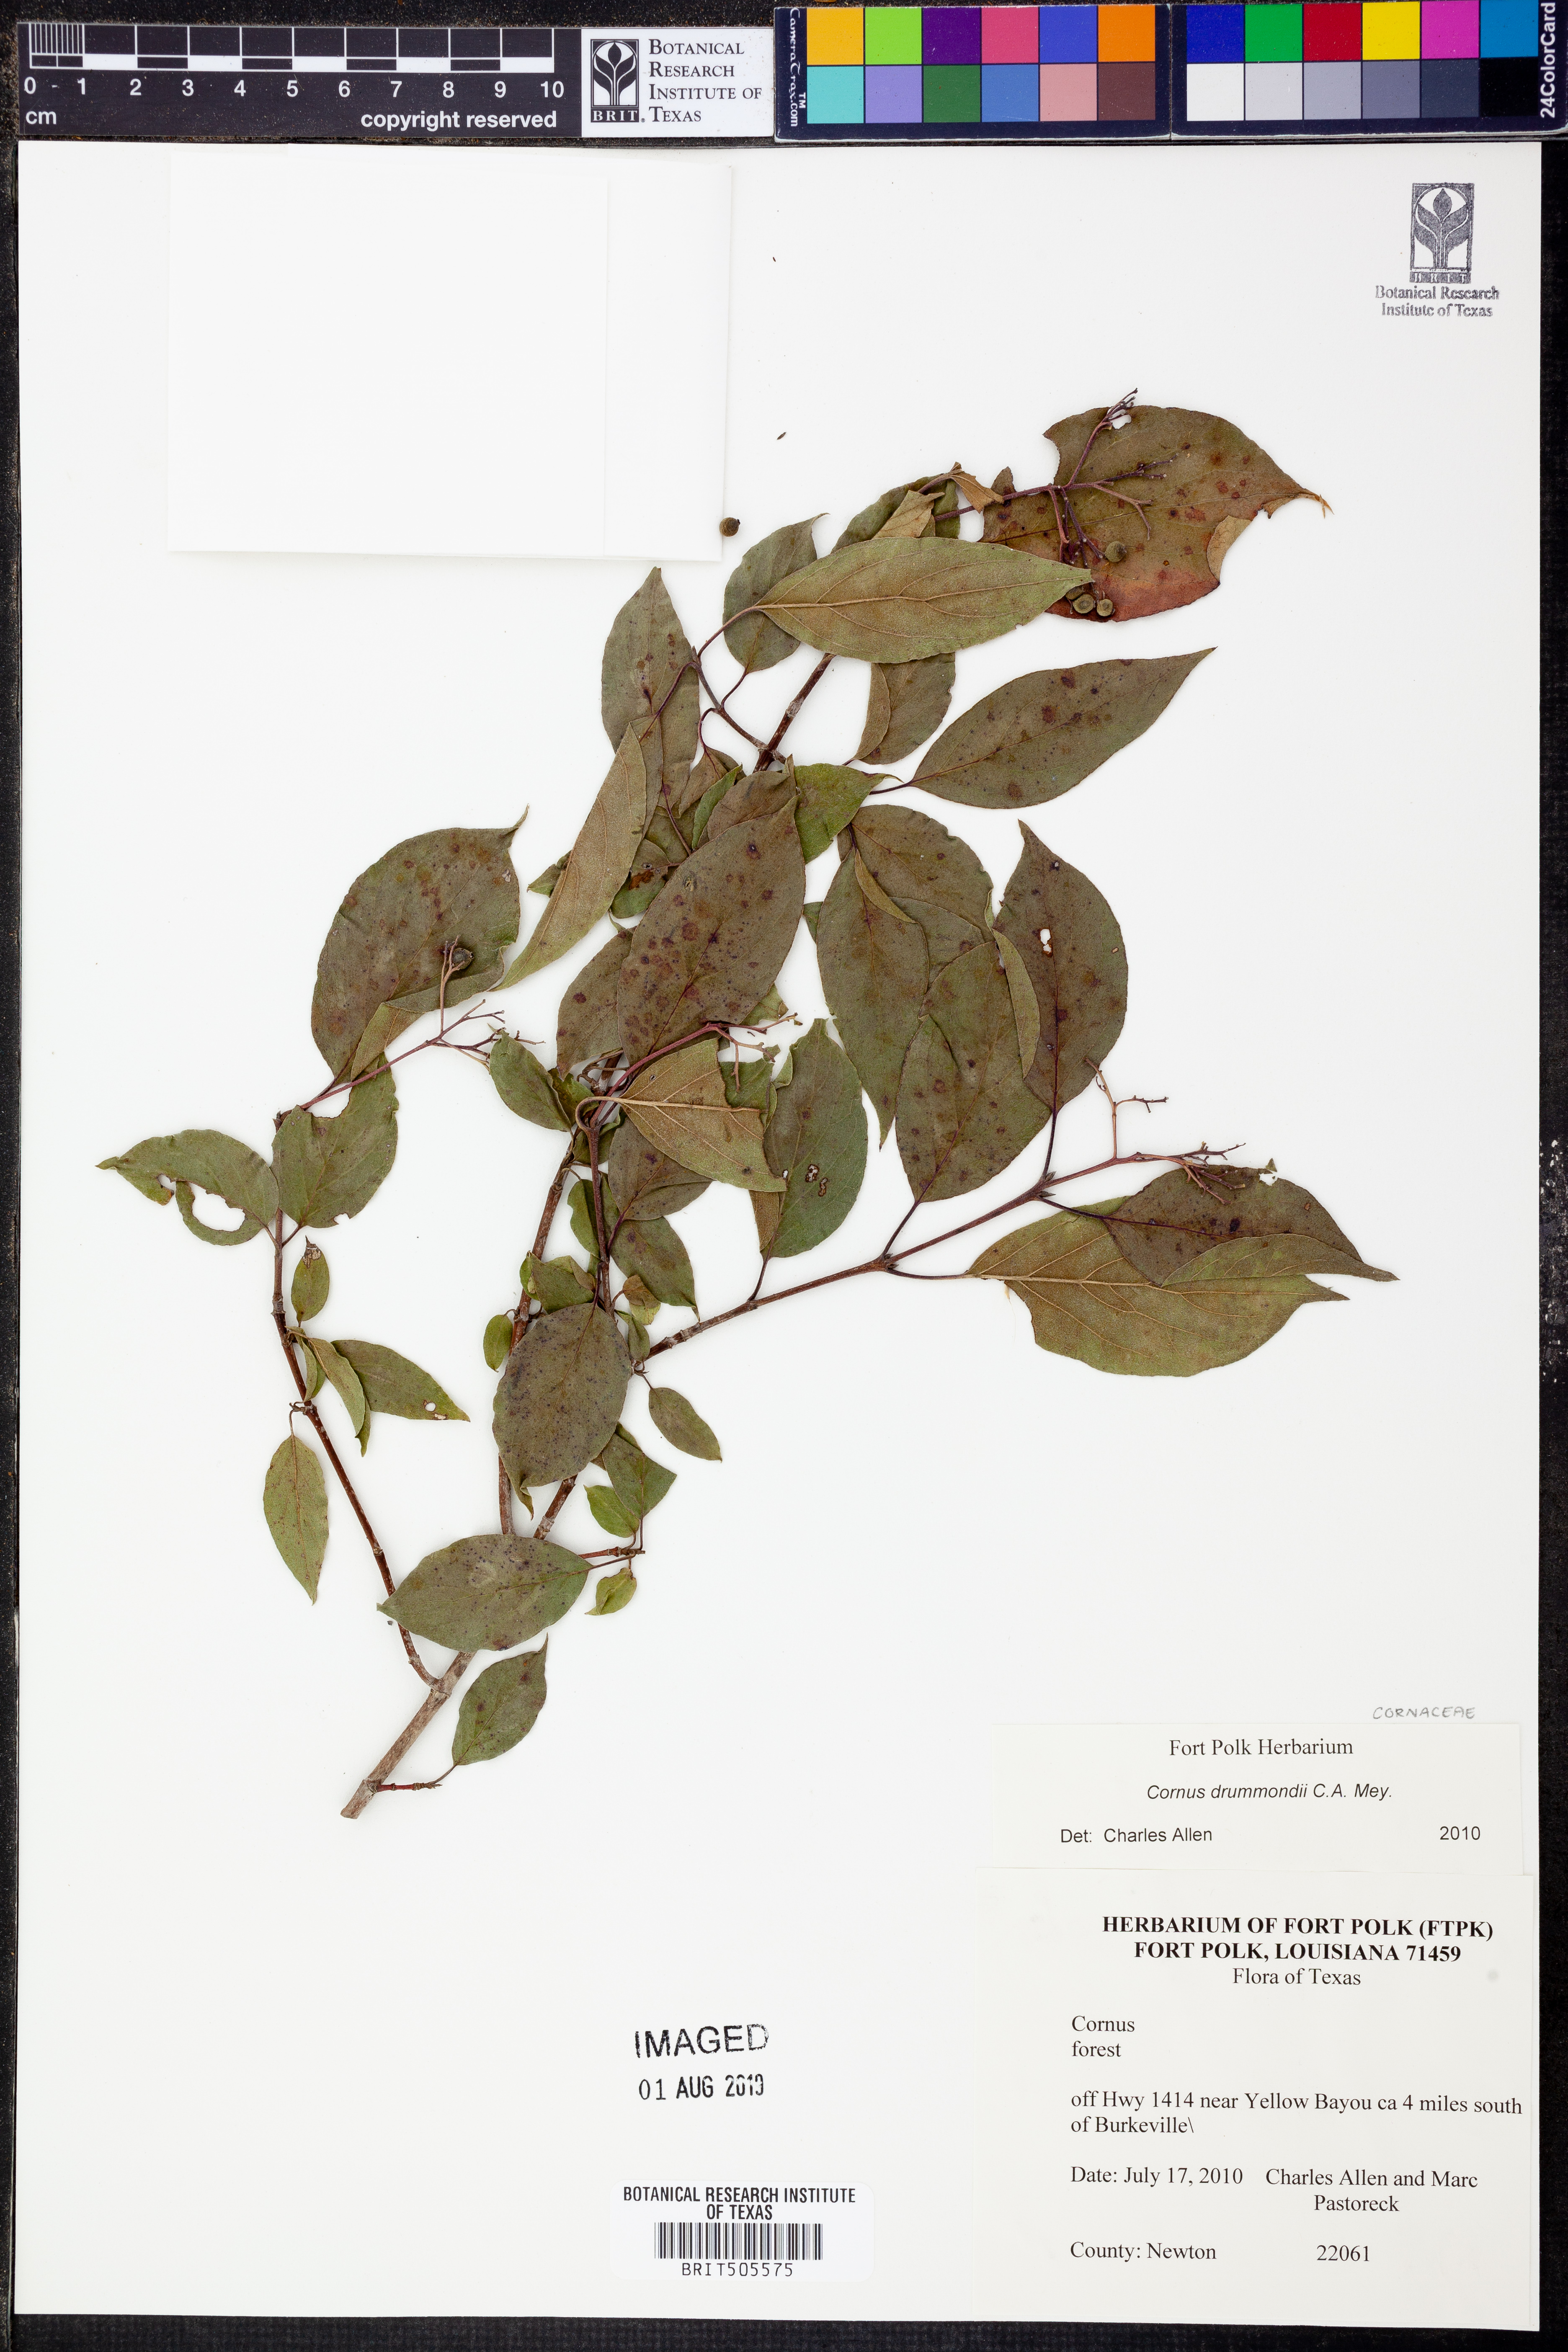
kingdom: Plantae
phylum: Tracheophyta
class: Magnoliopsida
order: Cornales
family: Cornaceae
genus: Cornus
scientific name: Cornus drummondii
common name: Rough-leaf dogwood
